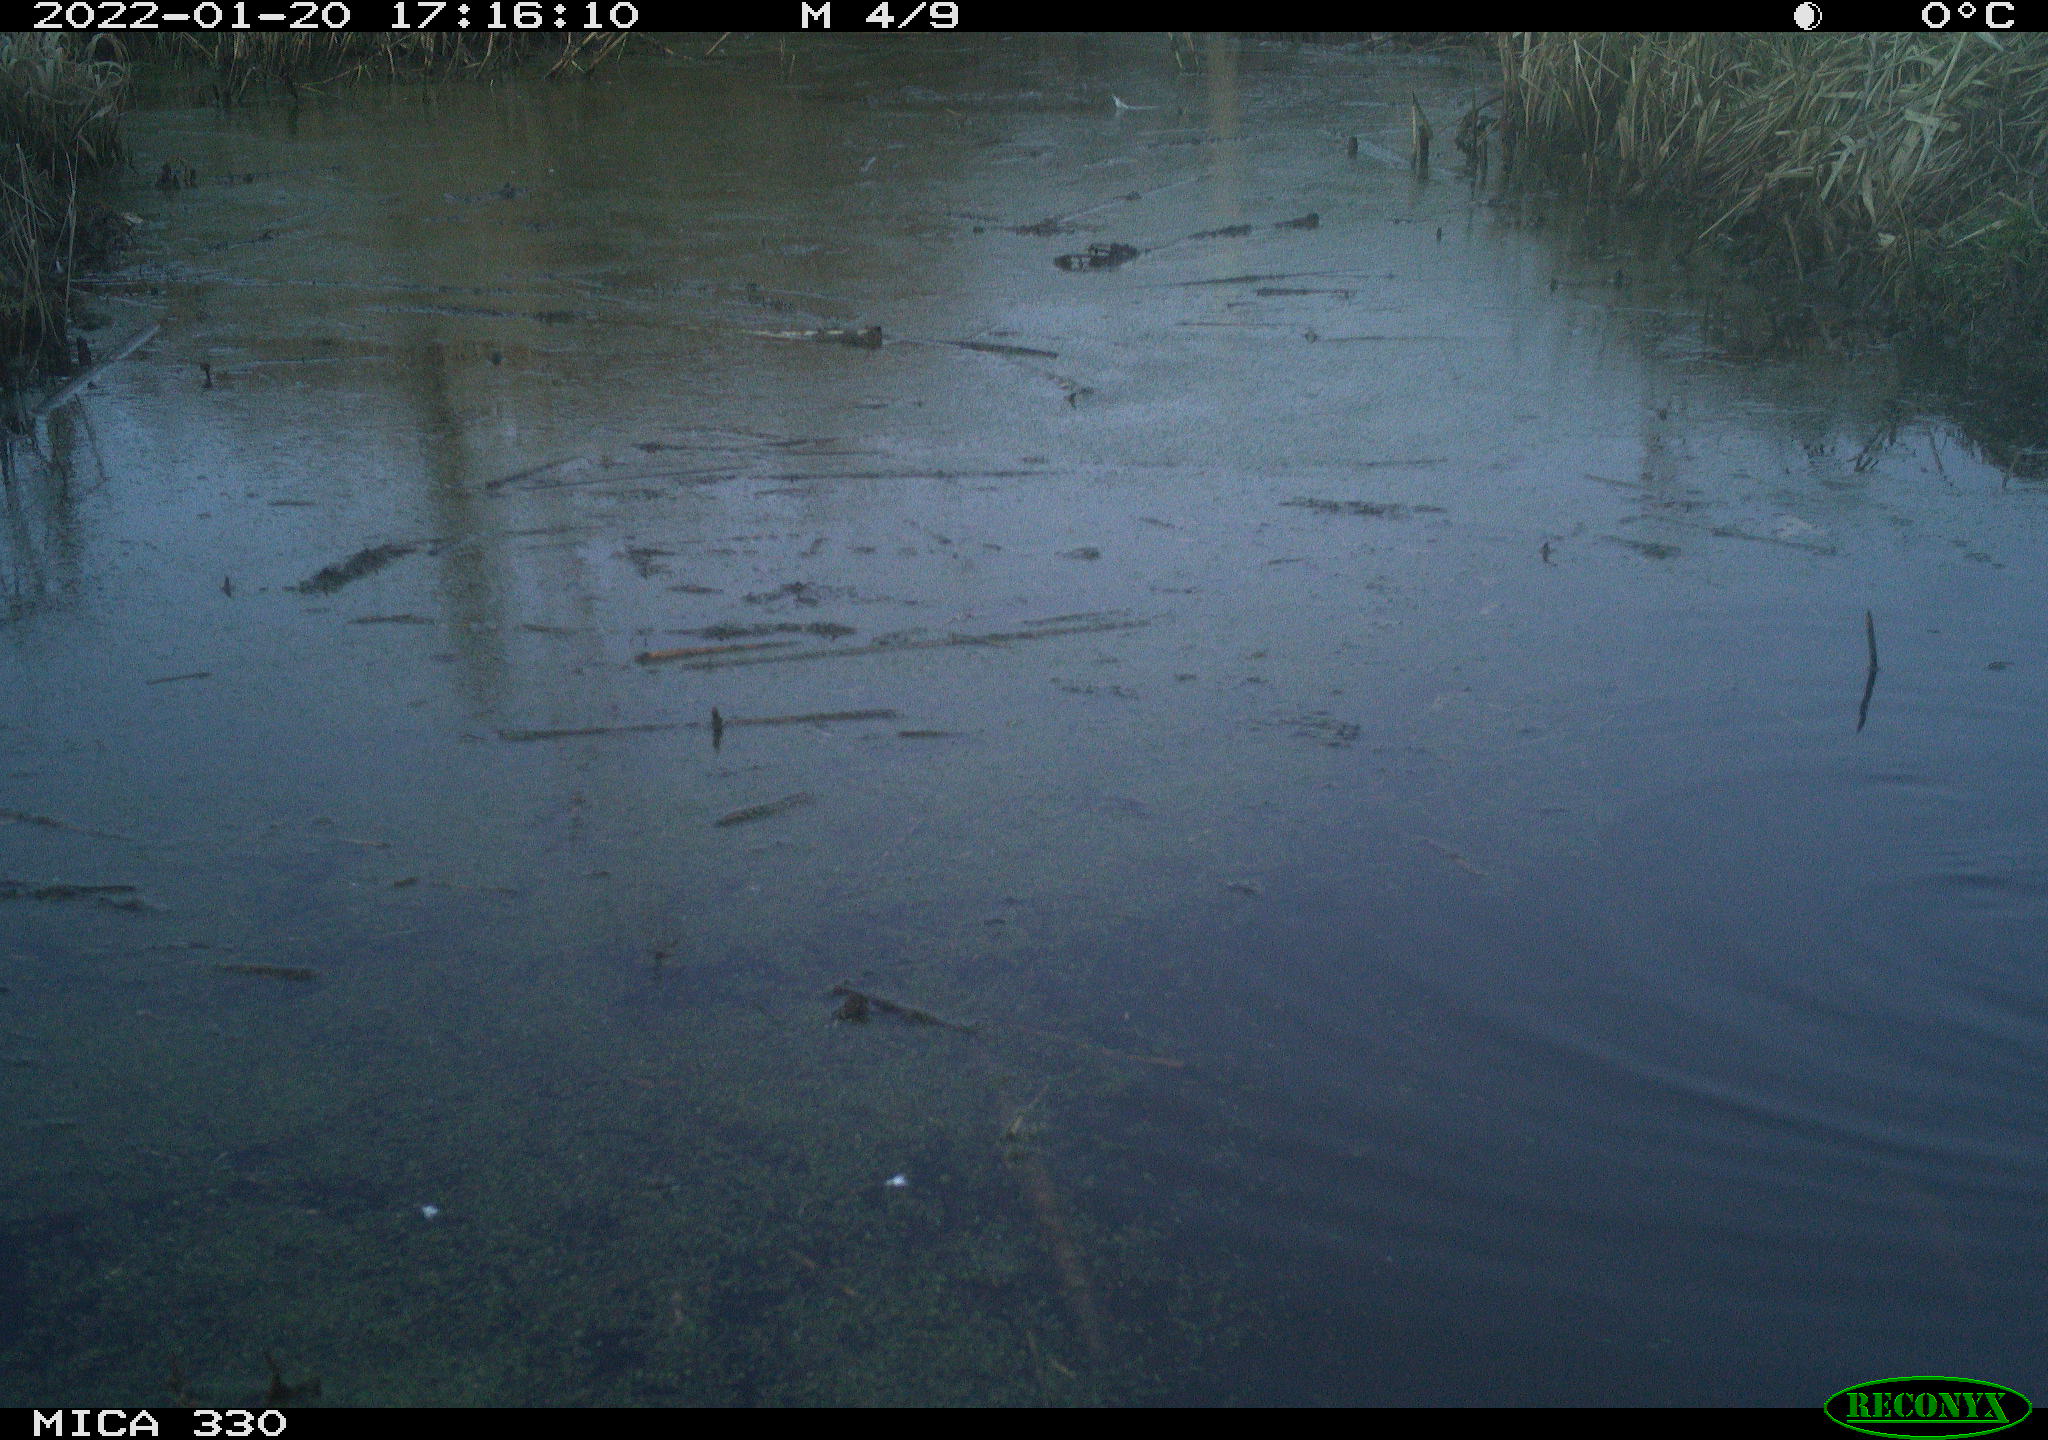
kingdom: Animalia
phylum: Chordata
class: Aves
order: Gruiformes
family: Rallidae
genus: Gallinula
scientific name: Gallinula chloropus
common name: Common moorhen
